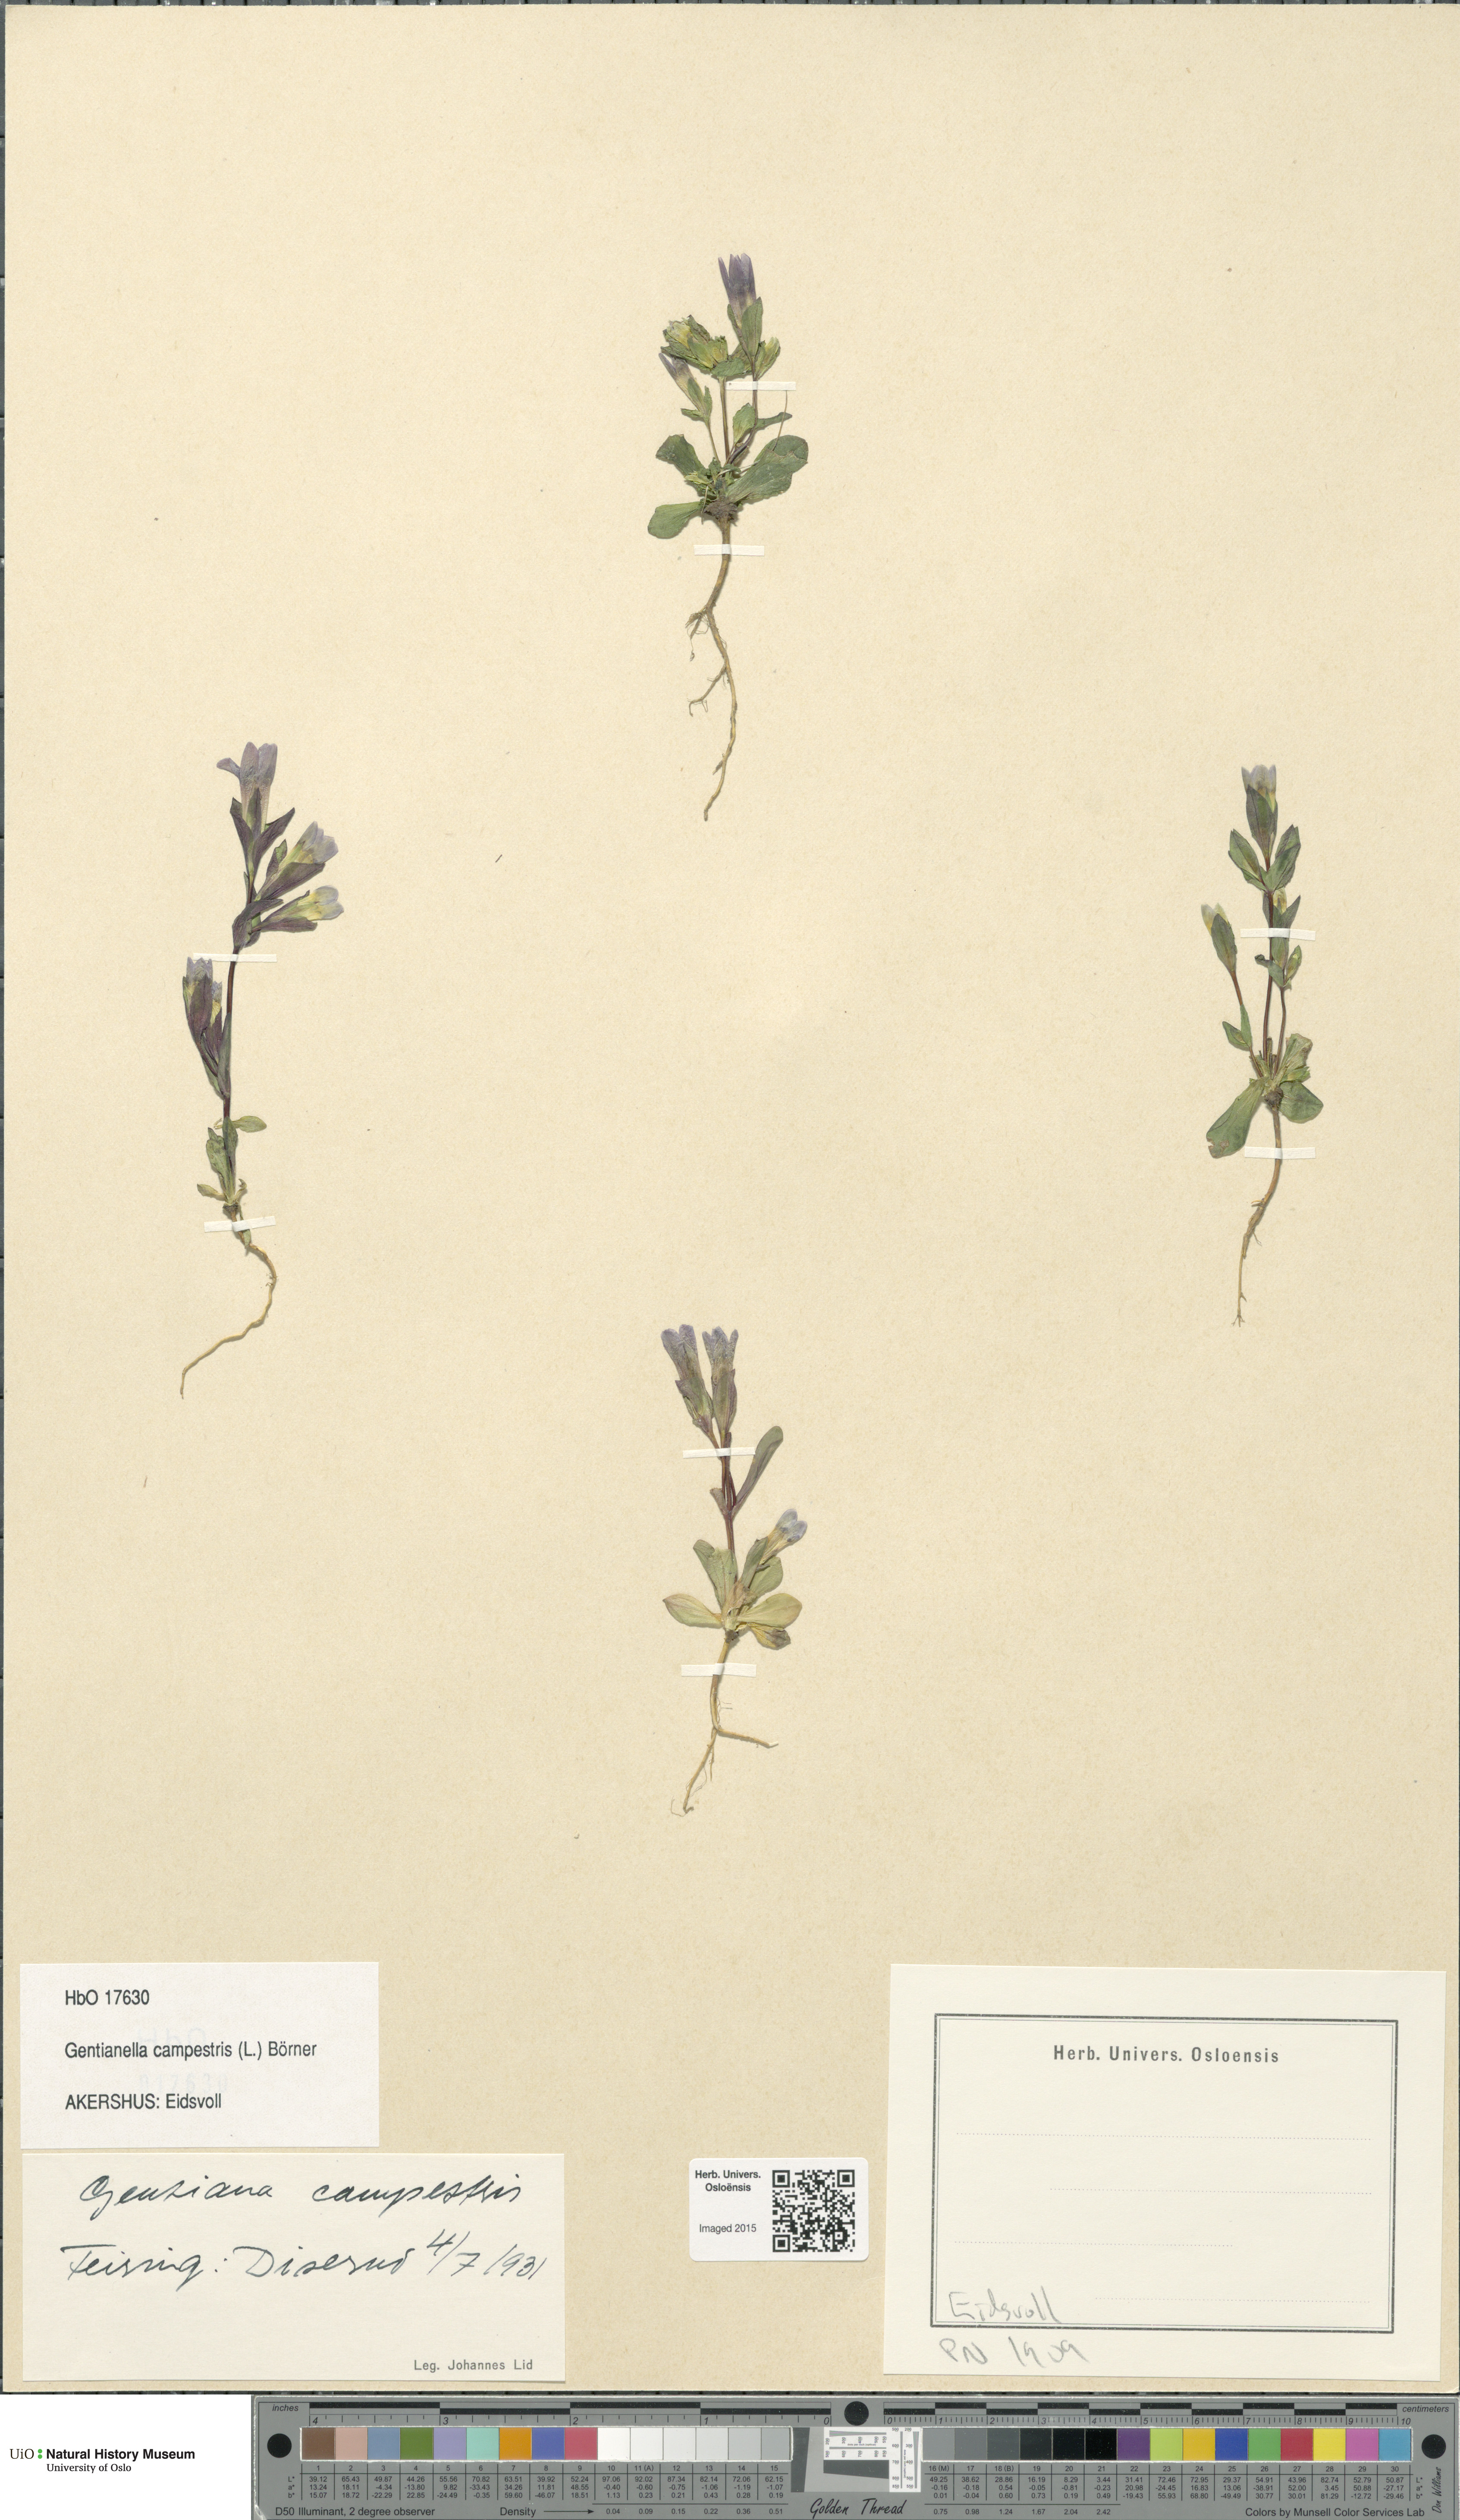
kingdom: Plantae
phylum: Tracheophyta
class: Magnoliopsida
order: Gentianales
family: Gentianaceae
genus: Gentianella
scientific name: Gentianella campestris
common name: Field gentian
